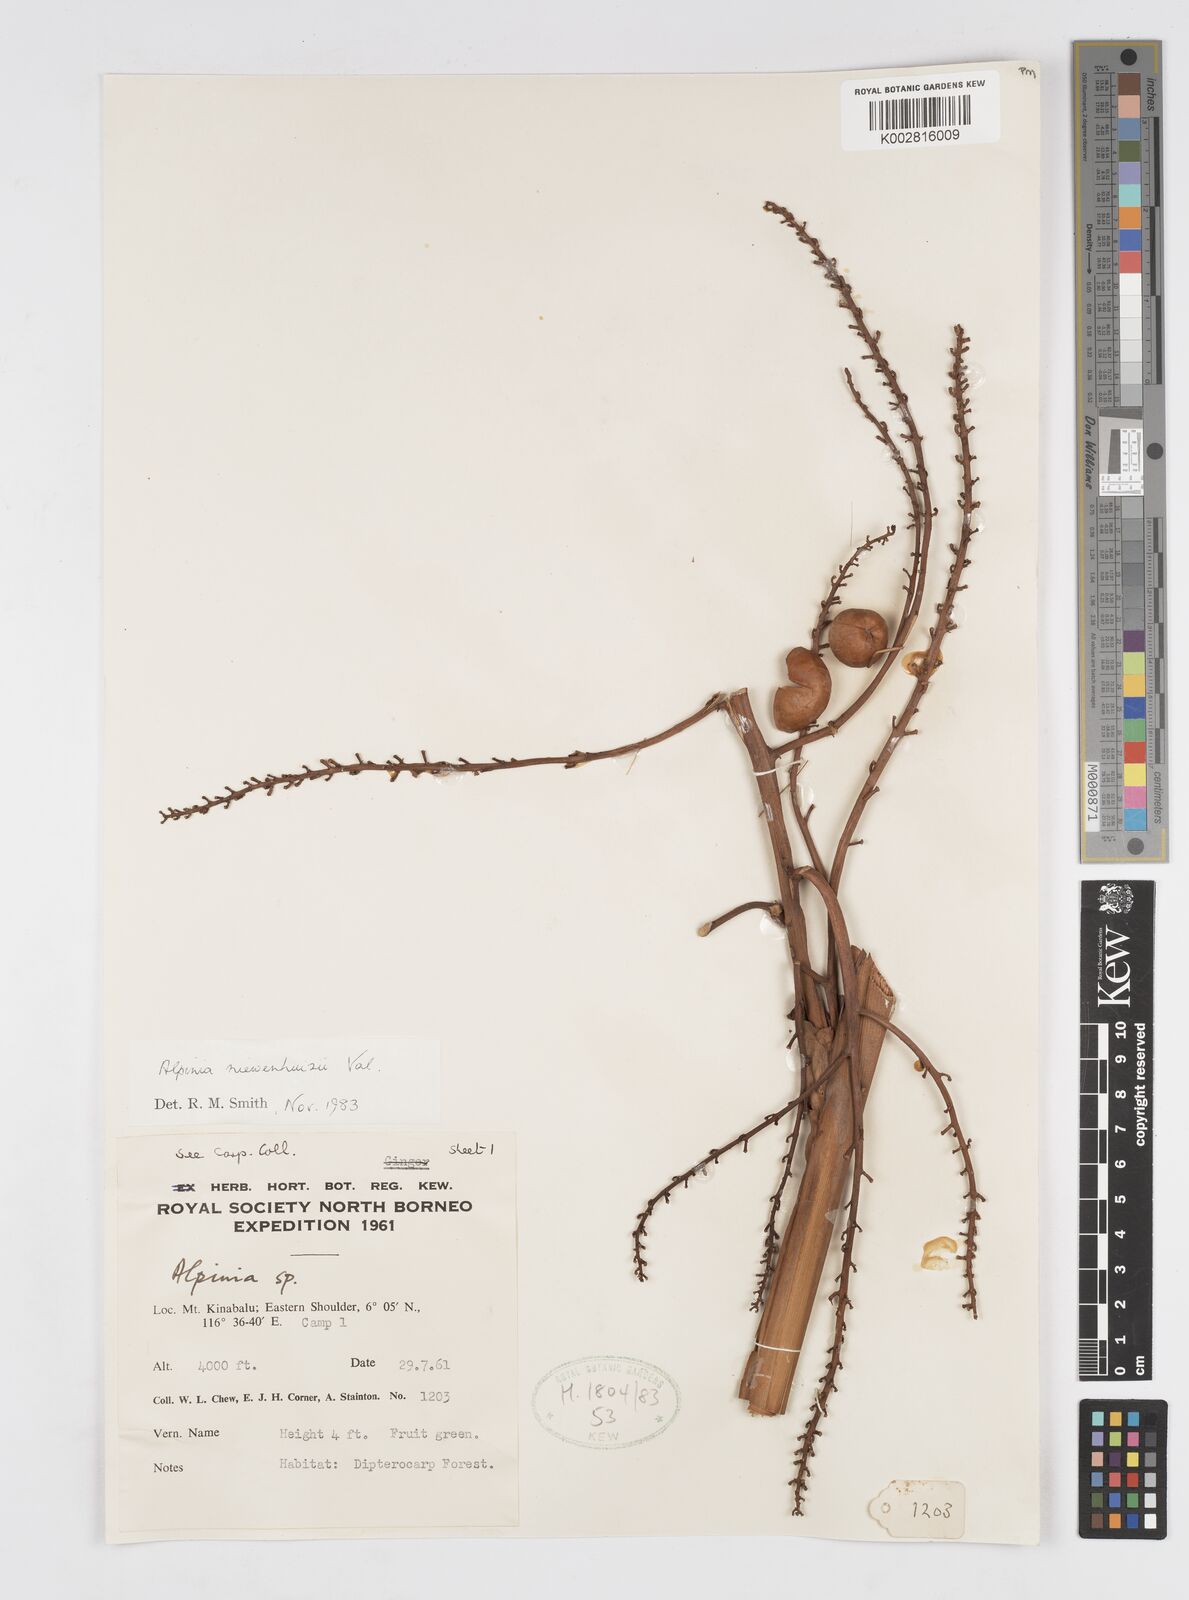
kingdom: Plantae
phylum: Tracheophyta
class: Liliopsida
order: Zingiberales
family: Zingiberaceae
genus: Alpinia
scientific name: Alpinia nieuwenhuizii
